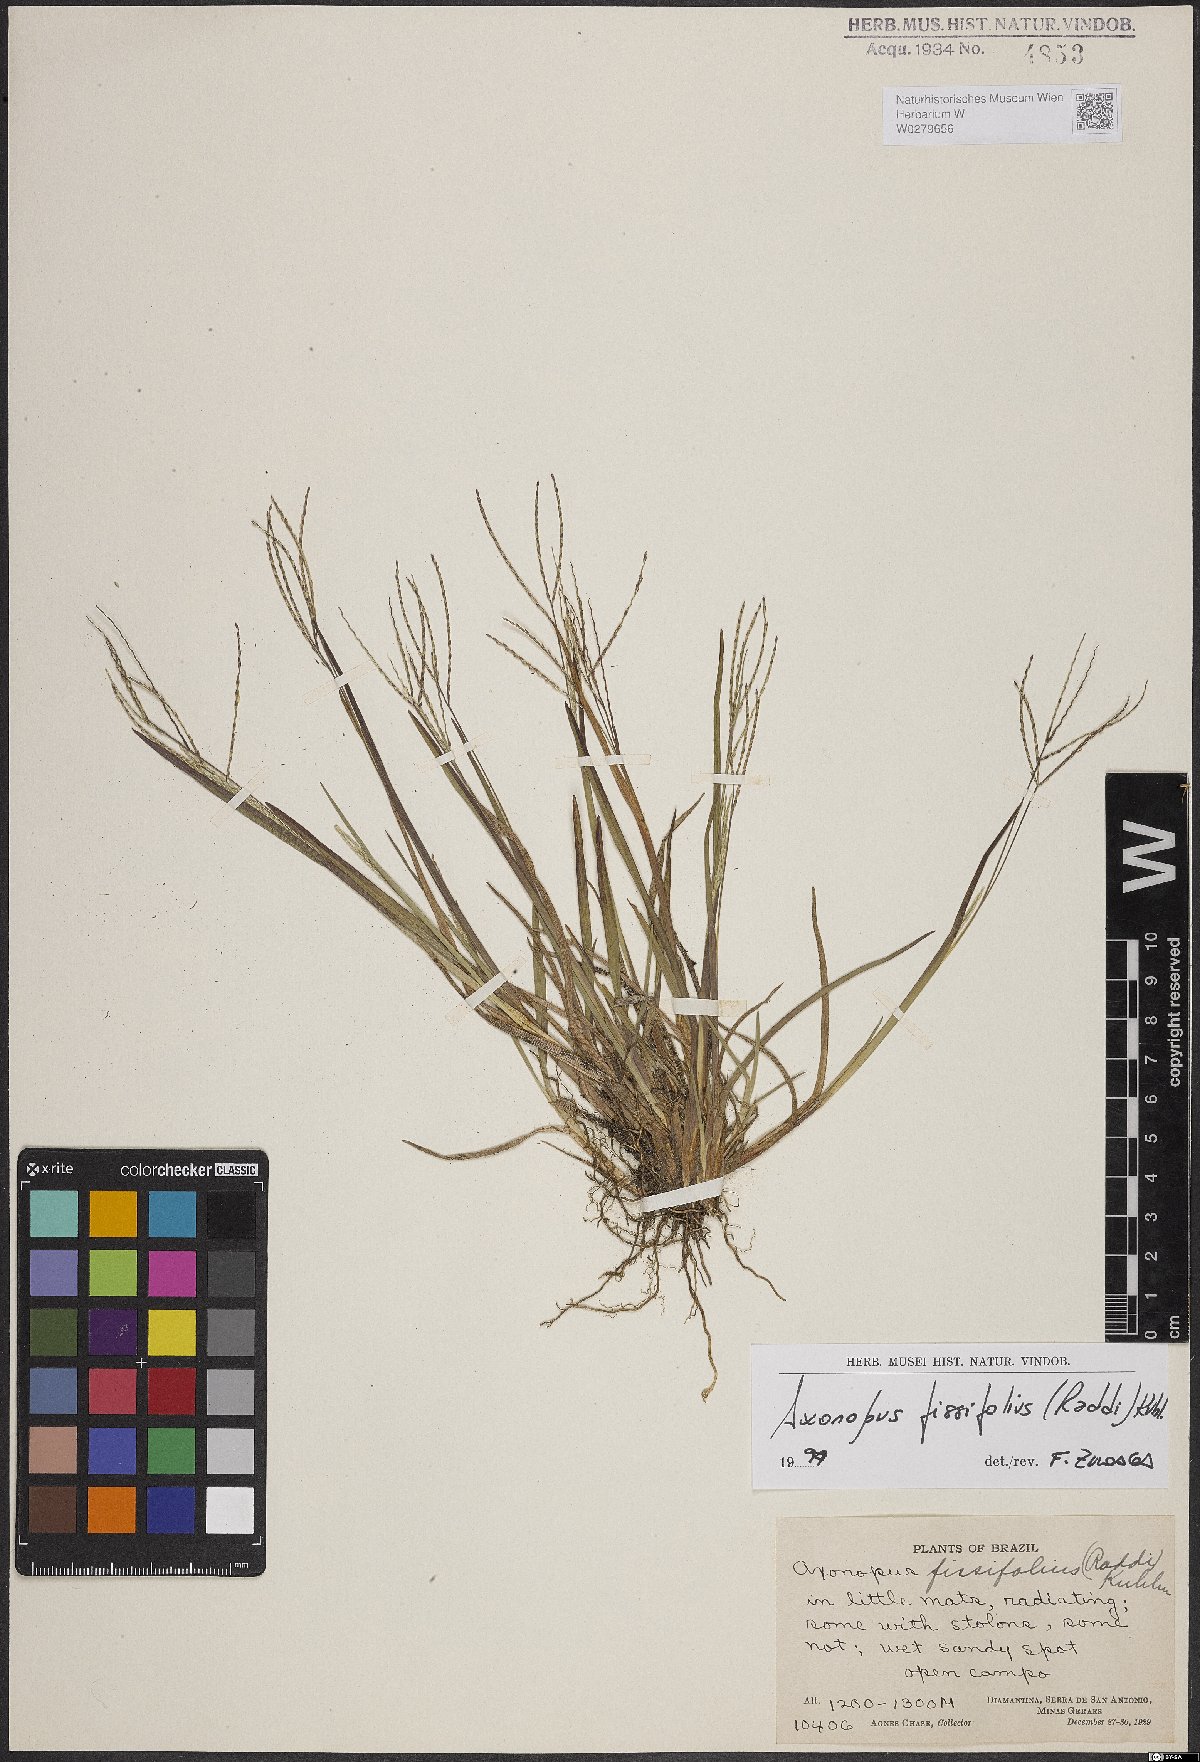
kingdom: Plantae
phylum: Tracheophyta
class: Liliopsida
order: Poales
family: Poaceae
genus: Axonopus
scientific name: Axonopus fissifolius
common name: Common carpetgrass
